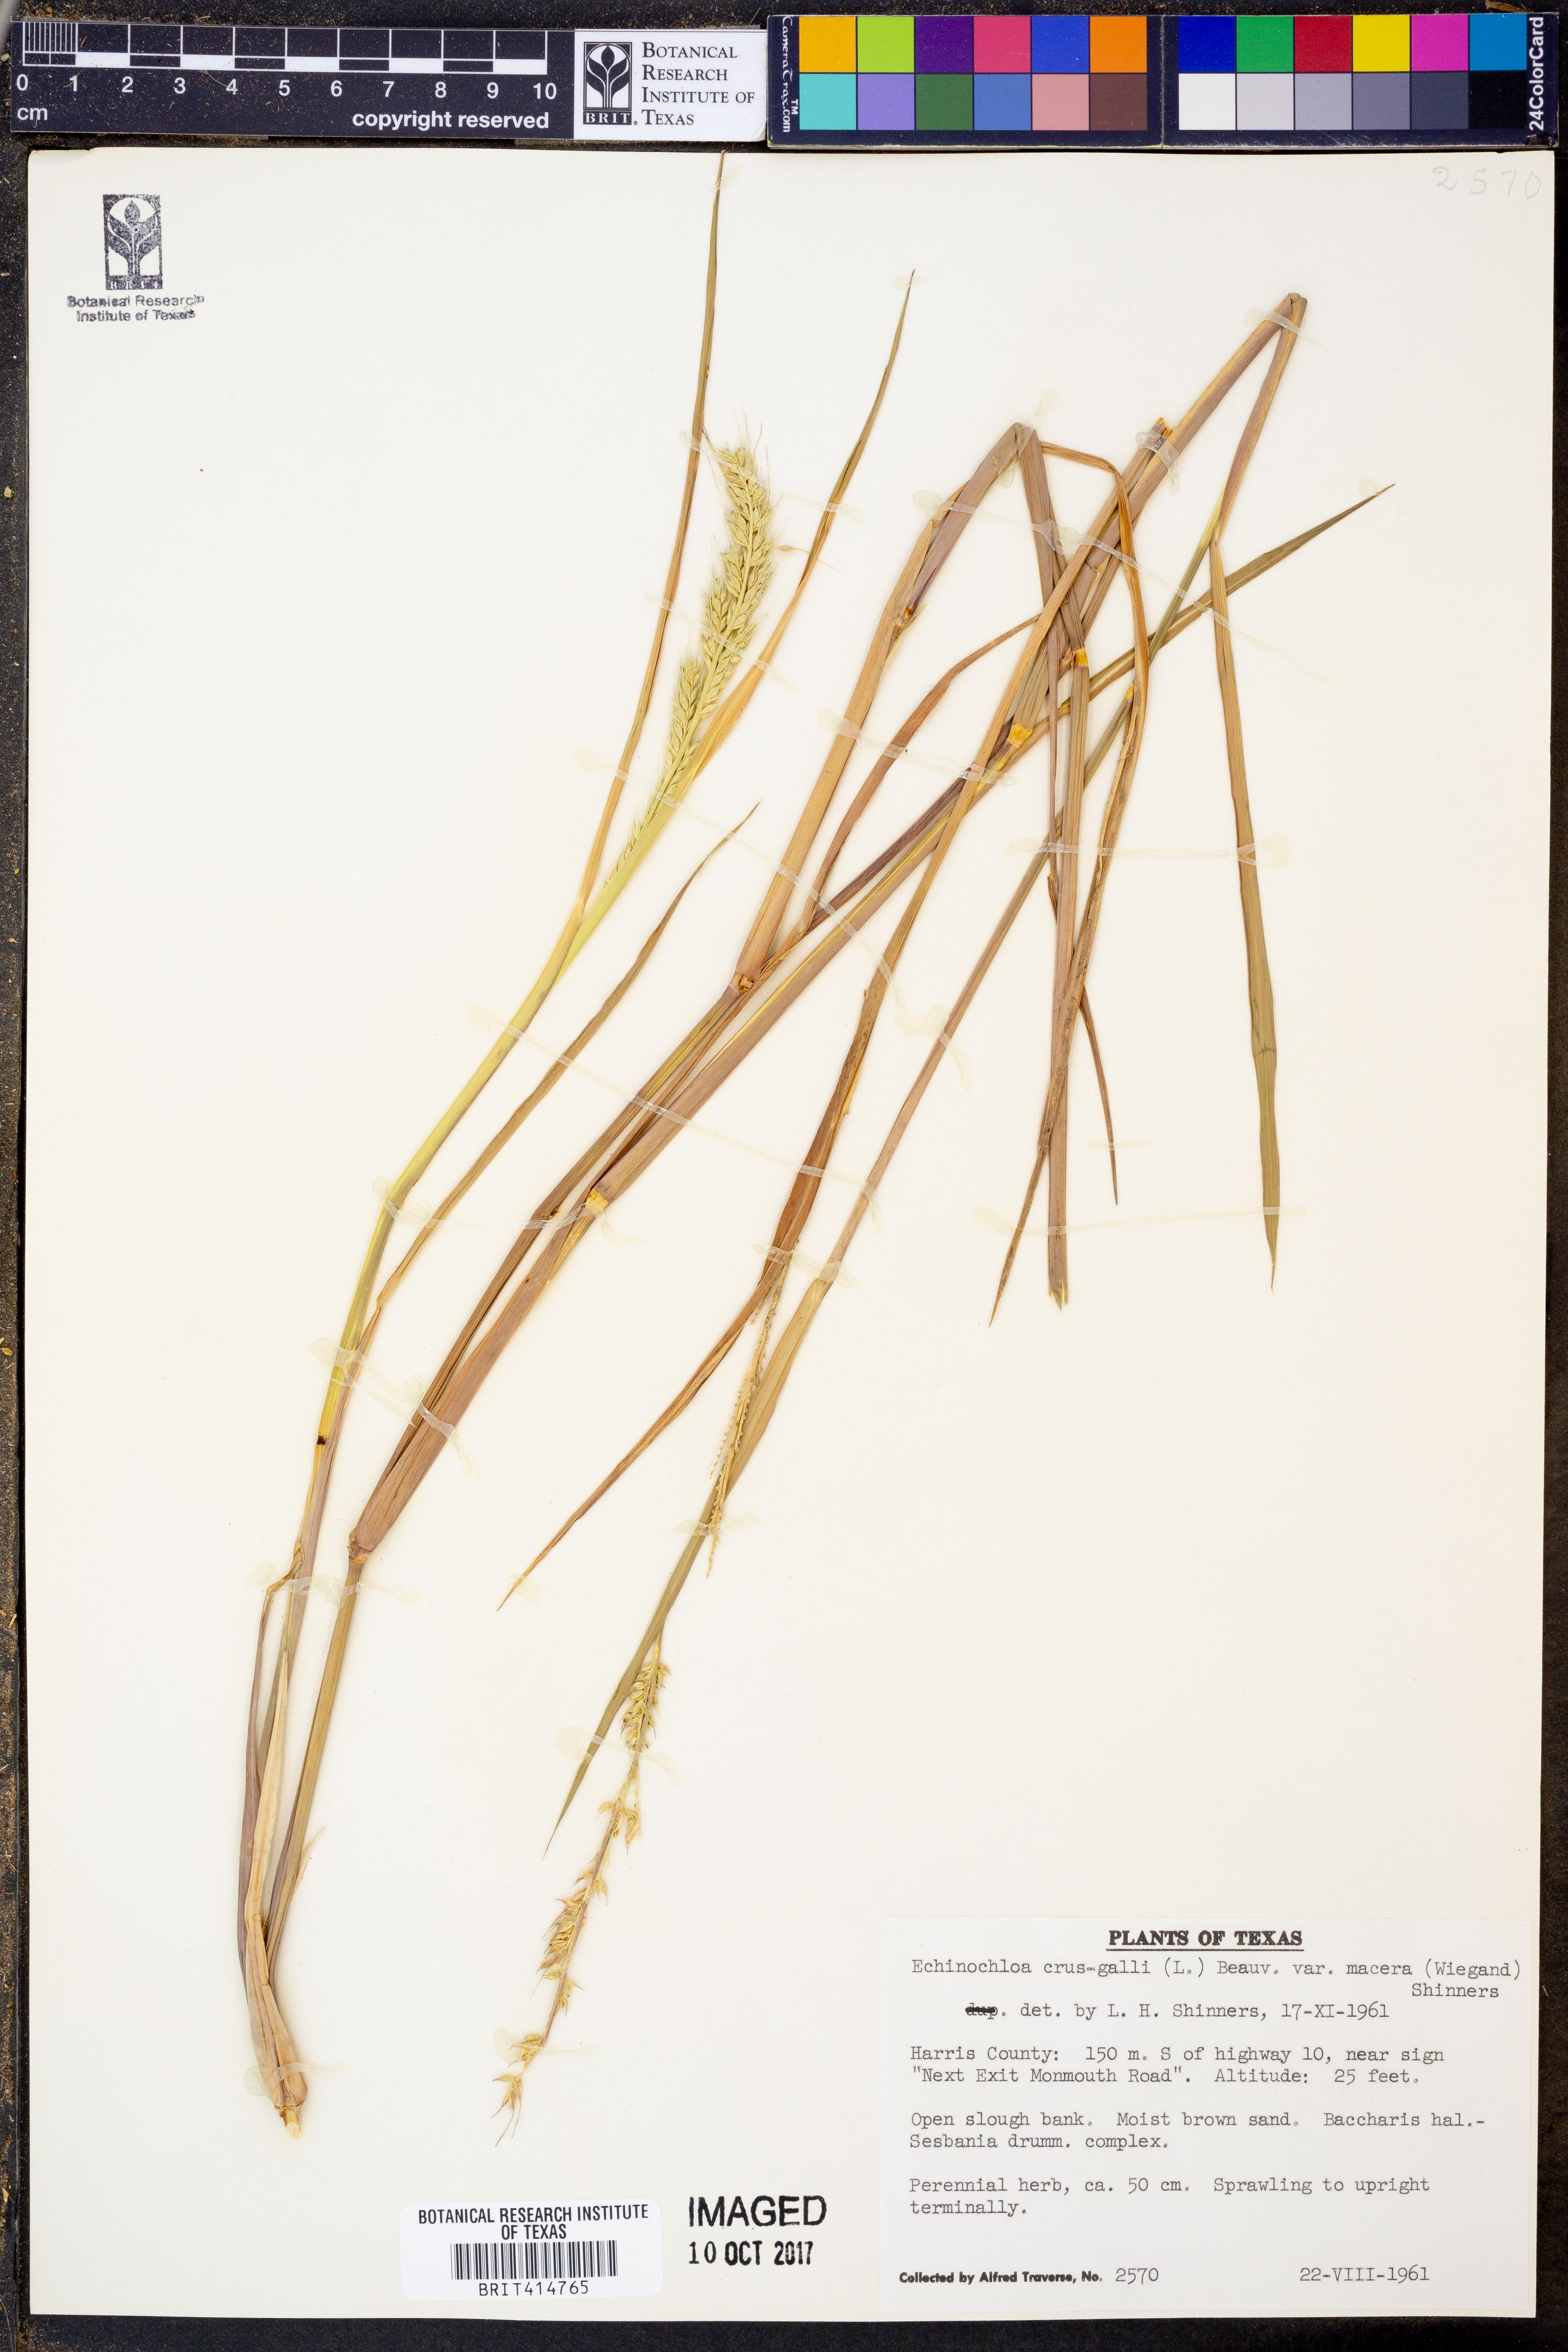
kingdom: Plantae
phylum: Tracheophyta
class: Liliopsida
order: Poales
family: Poaceae
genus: Echinochloa
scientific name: Echinochloa crus-pavonis
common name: Gulf cockspur grass
